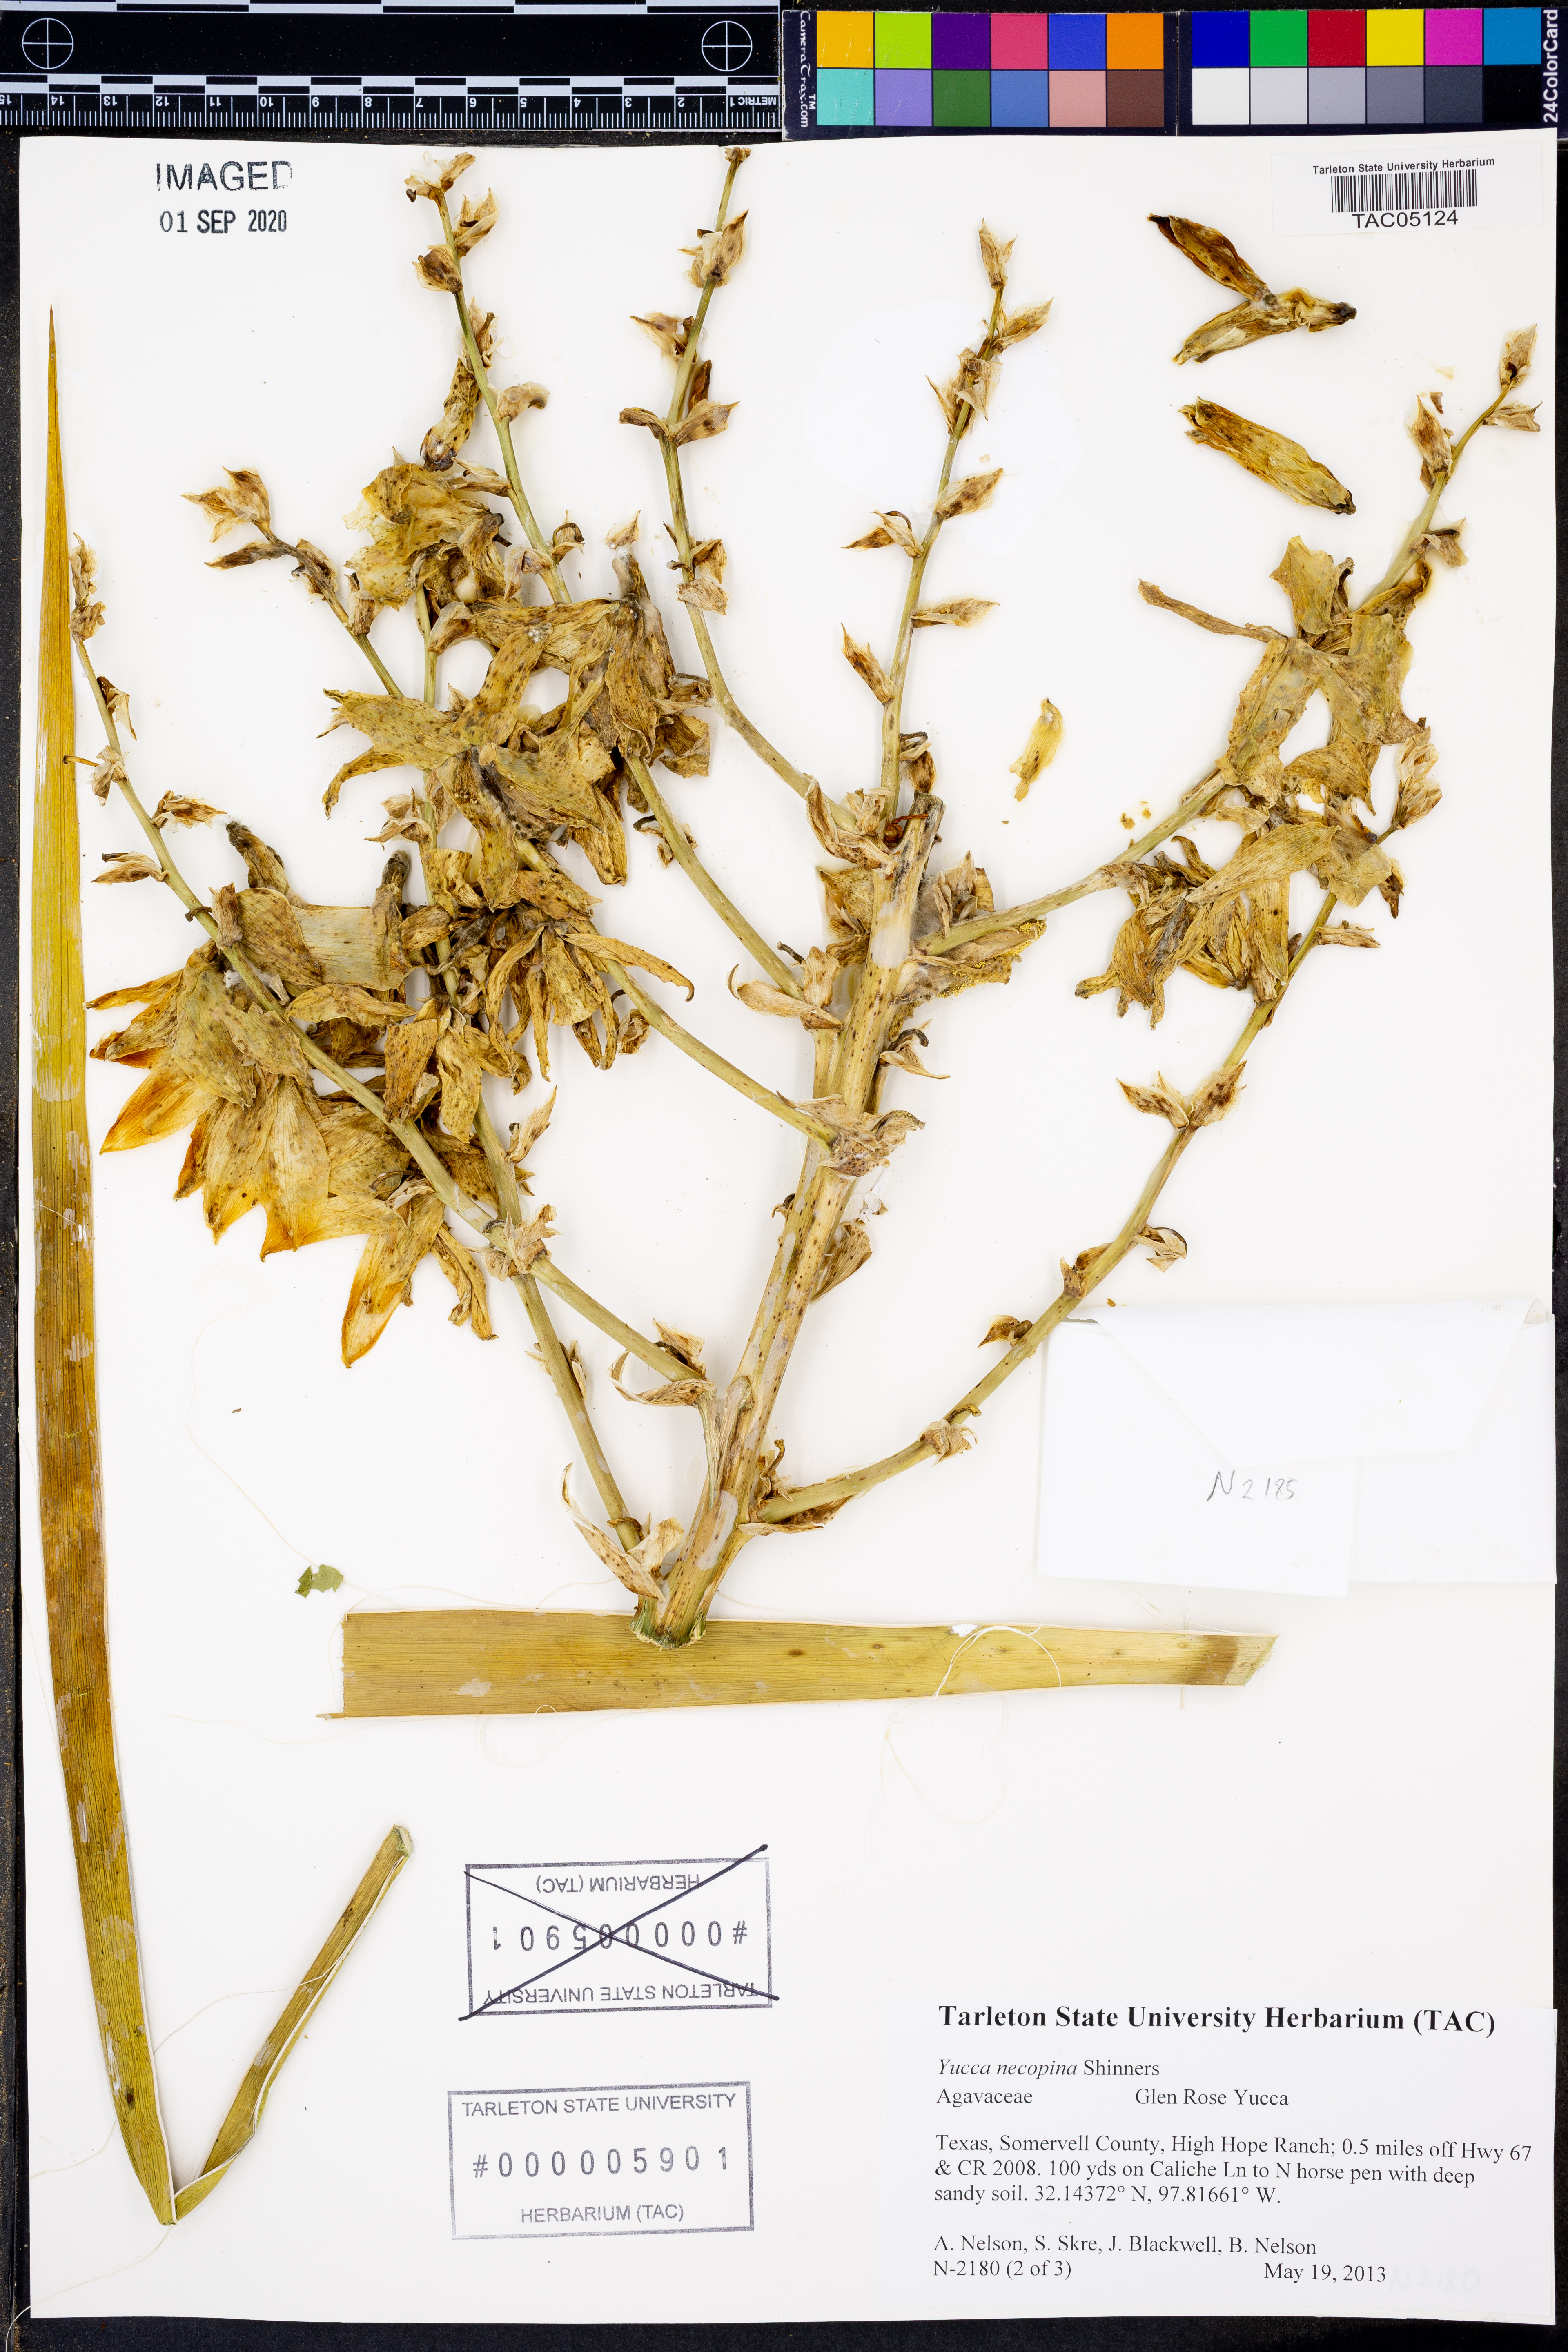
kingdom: Plantae
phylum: Tracheophyta
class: Liliopsida
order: Asparagales
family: Asparagaceae
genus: Yucca
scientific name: Yucca necopina
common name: Glen rose yucca
